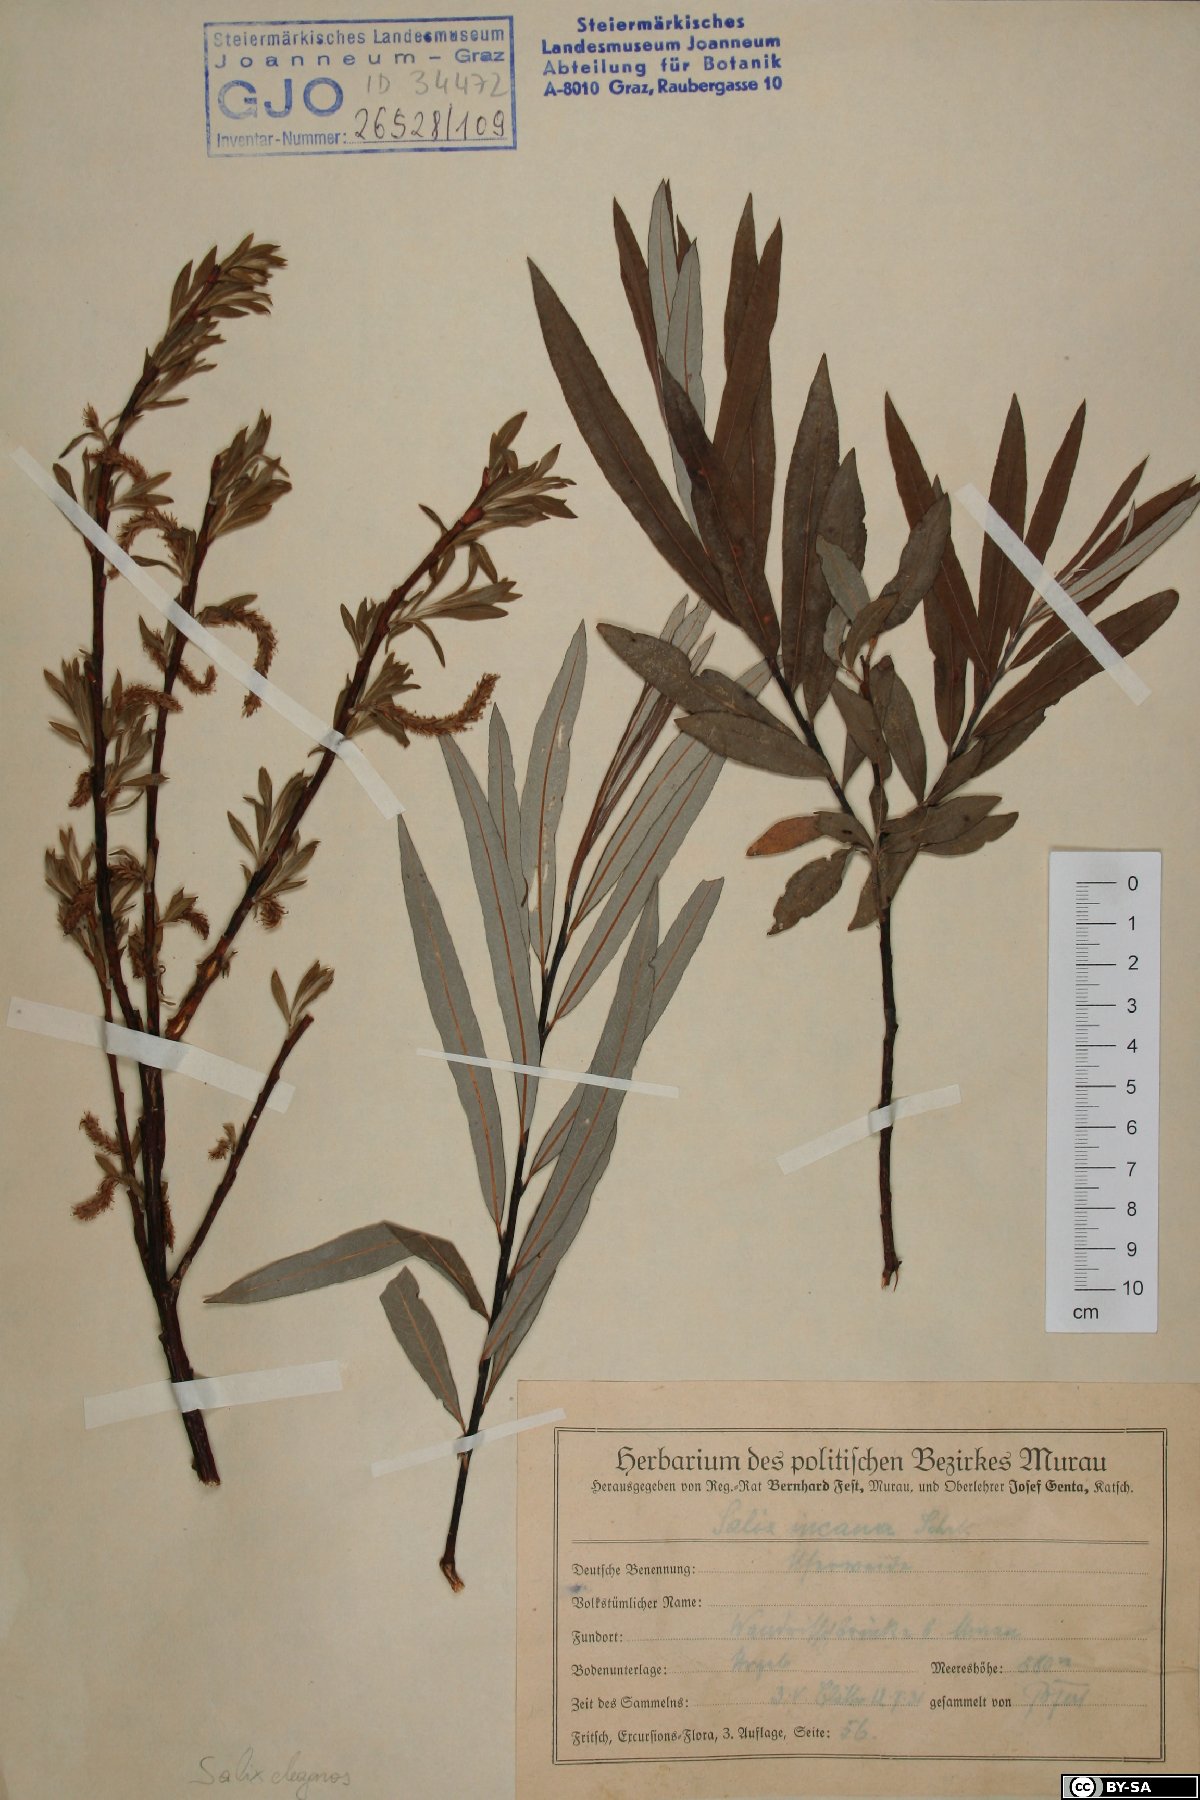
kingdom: Plantae
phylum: Tracheophyta
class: Magnoliopsida
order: Malpighiales
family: Salicaceae
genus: Salix
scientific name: Salix eleagnos
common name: Elaeagnus willow
